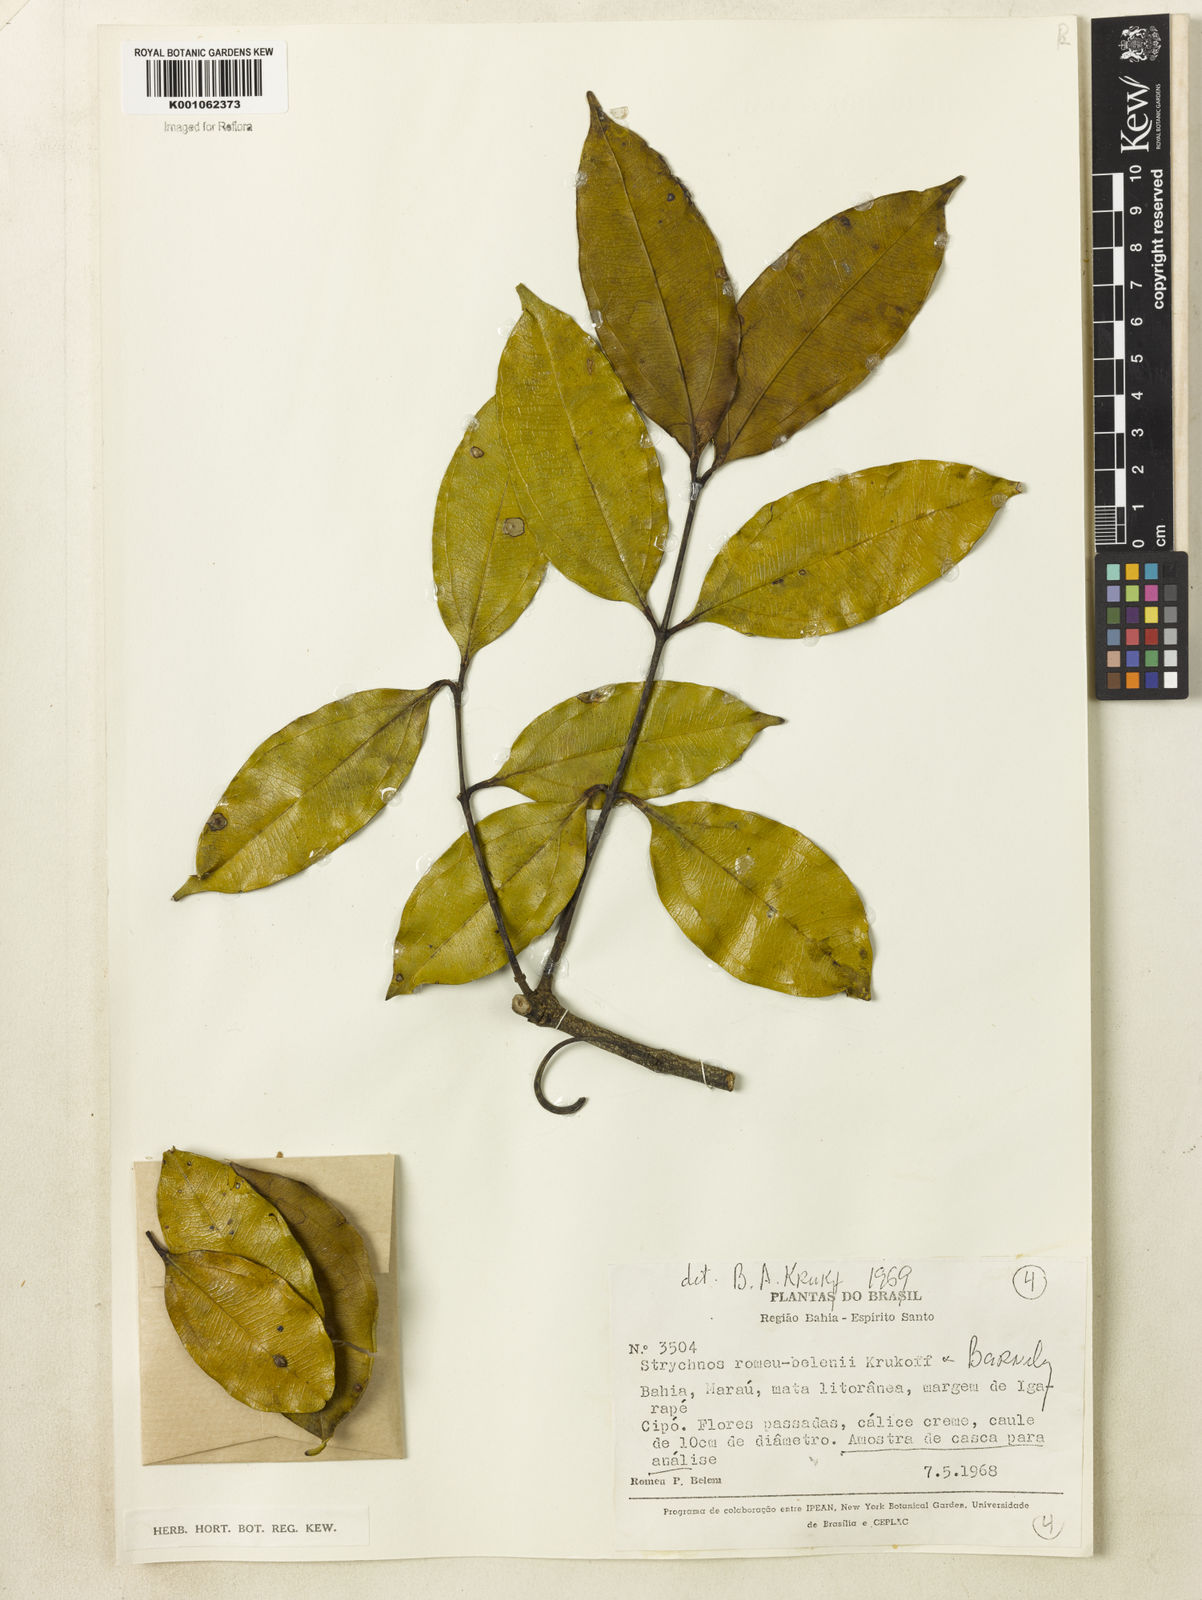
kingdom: Plantae
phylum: Tracheophyta
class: Magnoliopsida
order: Gentianales
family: Loganiaceae
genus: Strychnos
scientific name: Strychnos romeu-belenii
